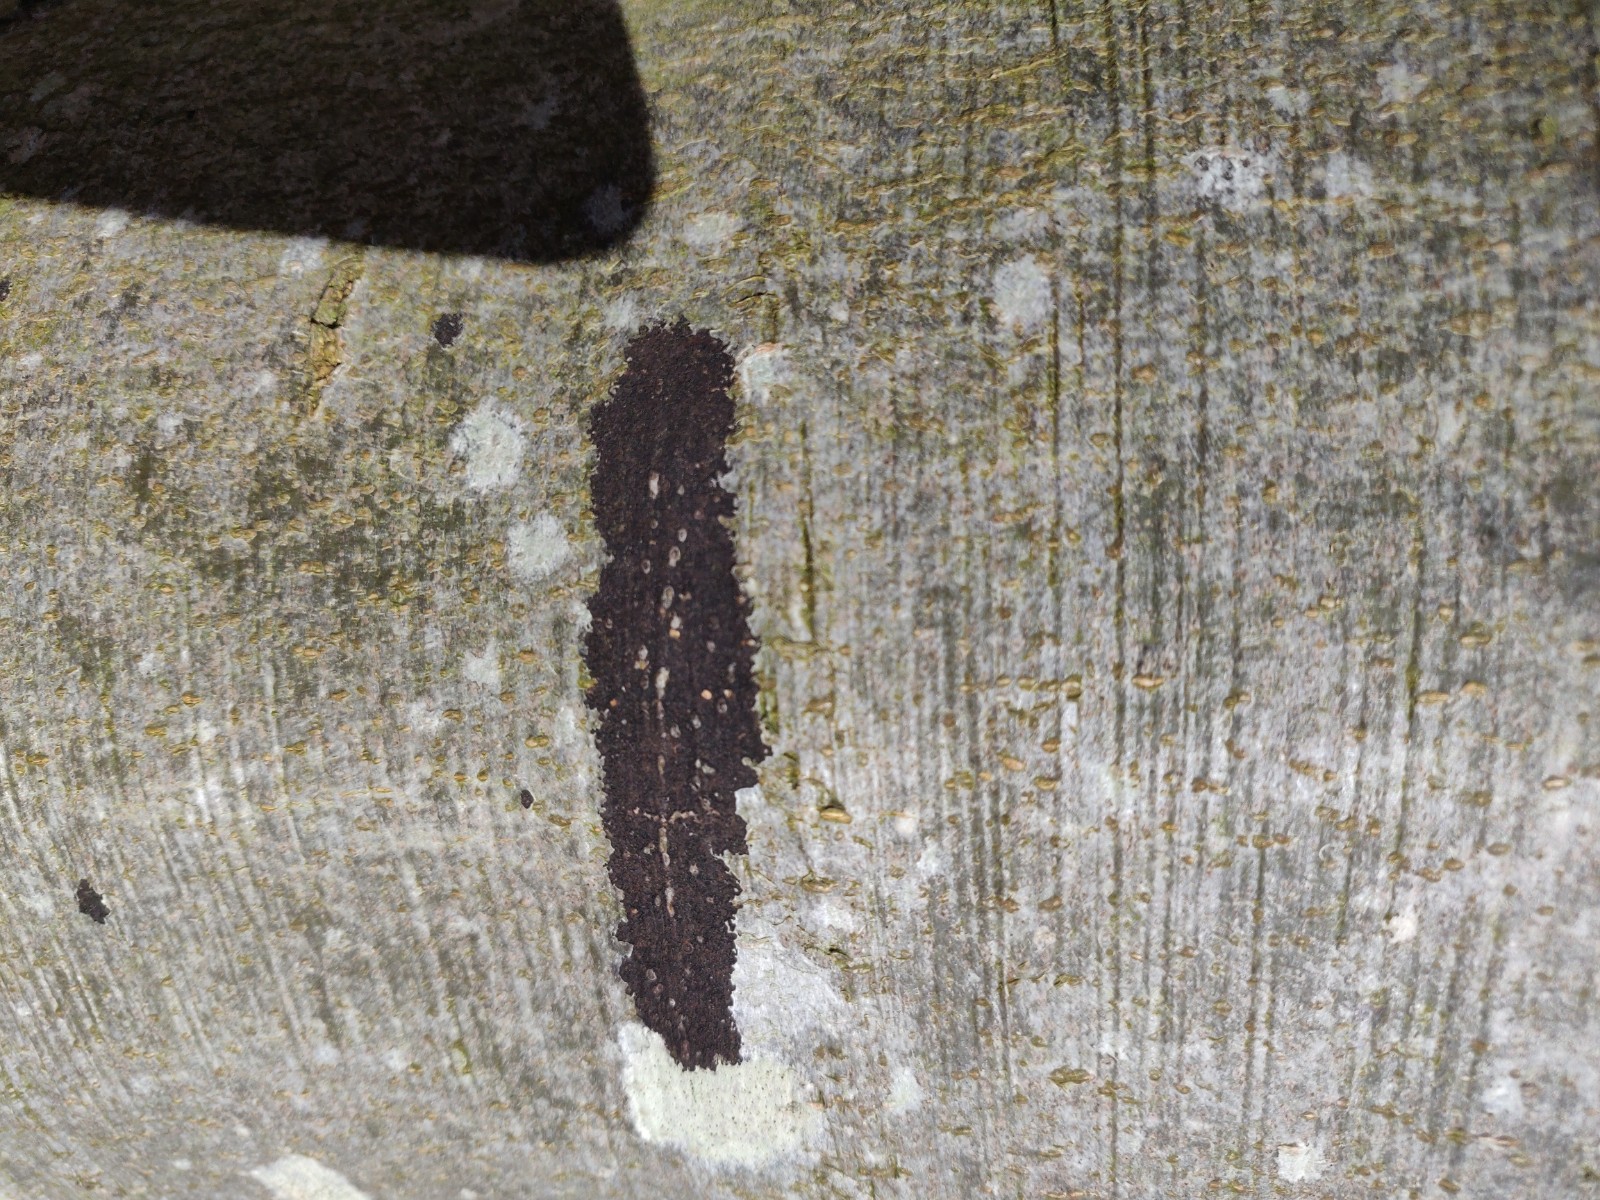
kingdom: Fungi
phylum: Ascomycota
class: Leotiomycetes
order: Rhytismatales
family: Ascodichaenaceae
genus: Ascodichaena
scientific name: Ascodichaena rugosa
